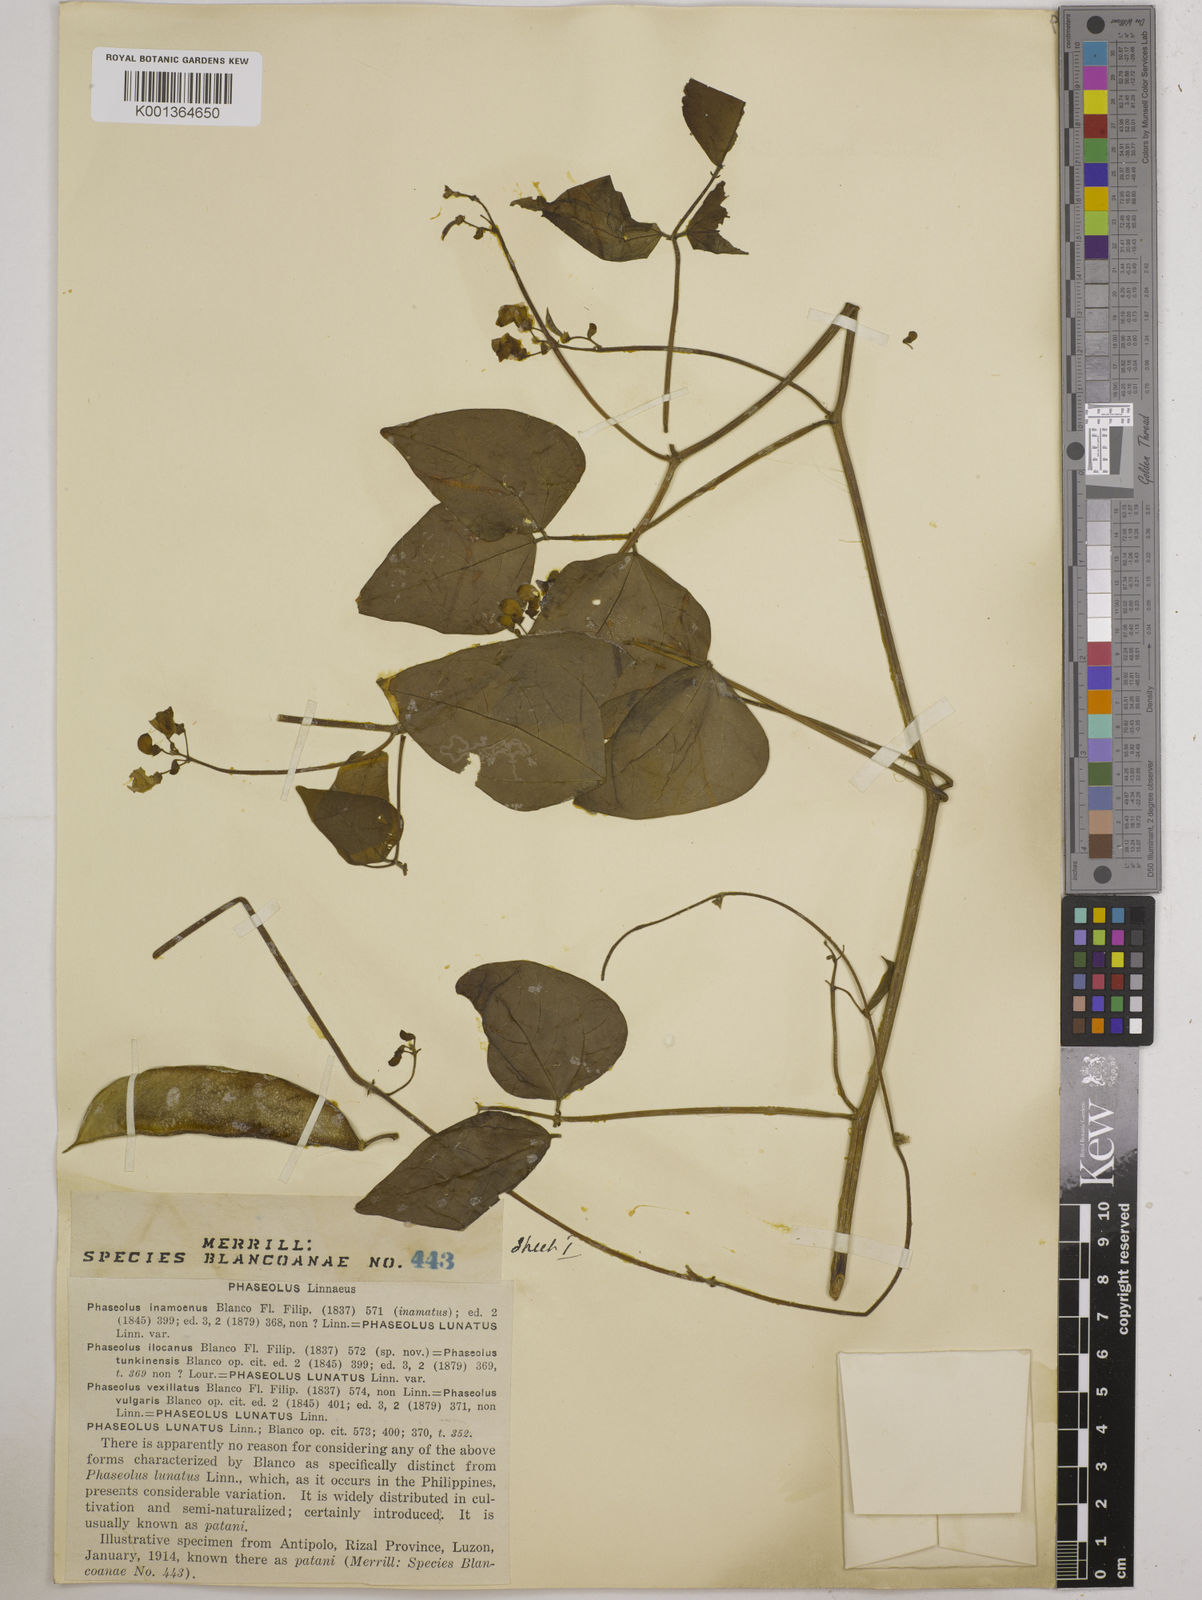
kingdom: Plantae
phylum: Tracheophyta
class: Magnoliopsida
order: Fabales
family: Fabaceae
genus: Phaseolus
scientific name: Phaseolus lunatus
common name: Sieva bean
